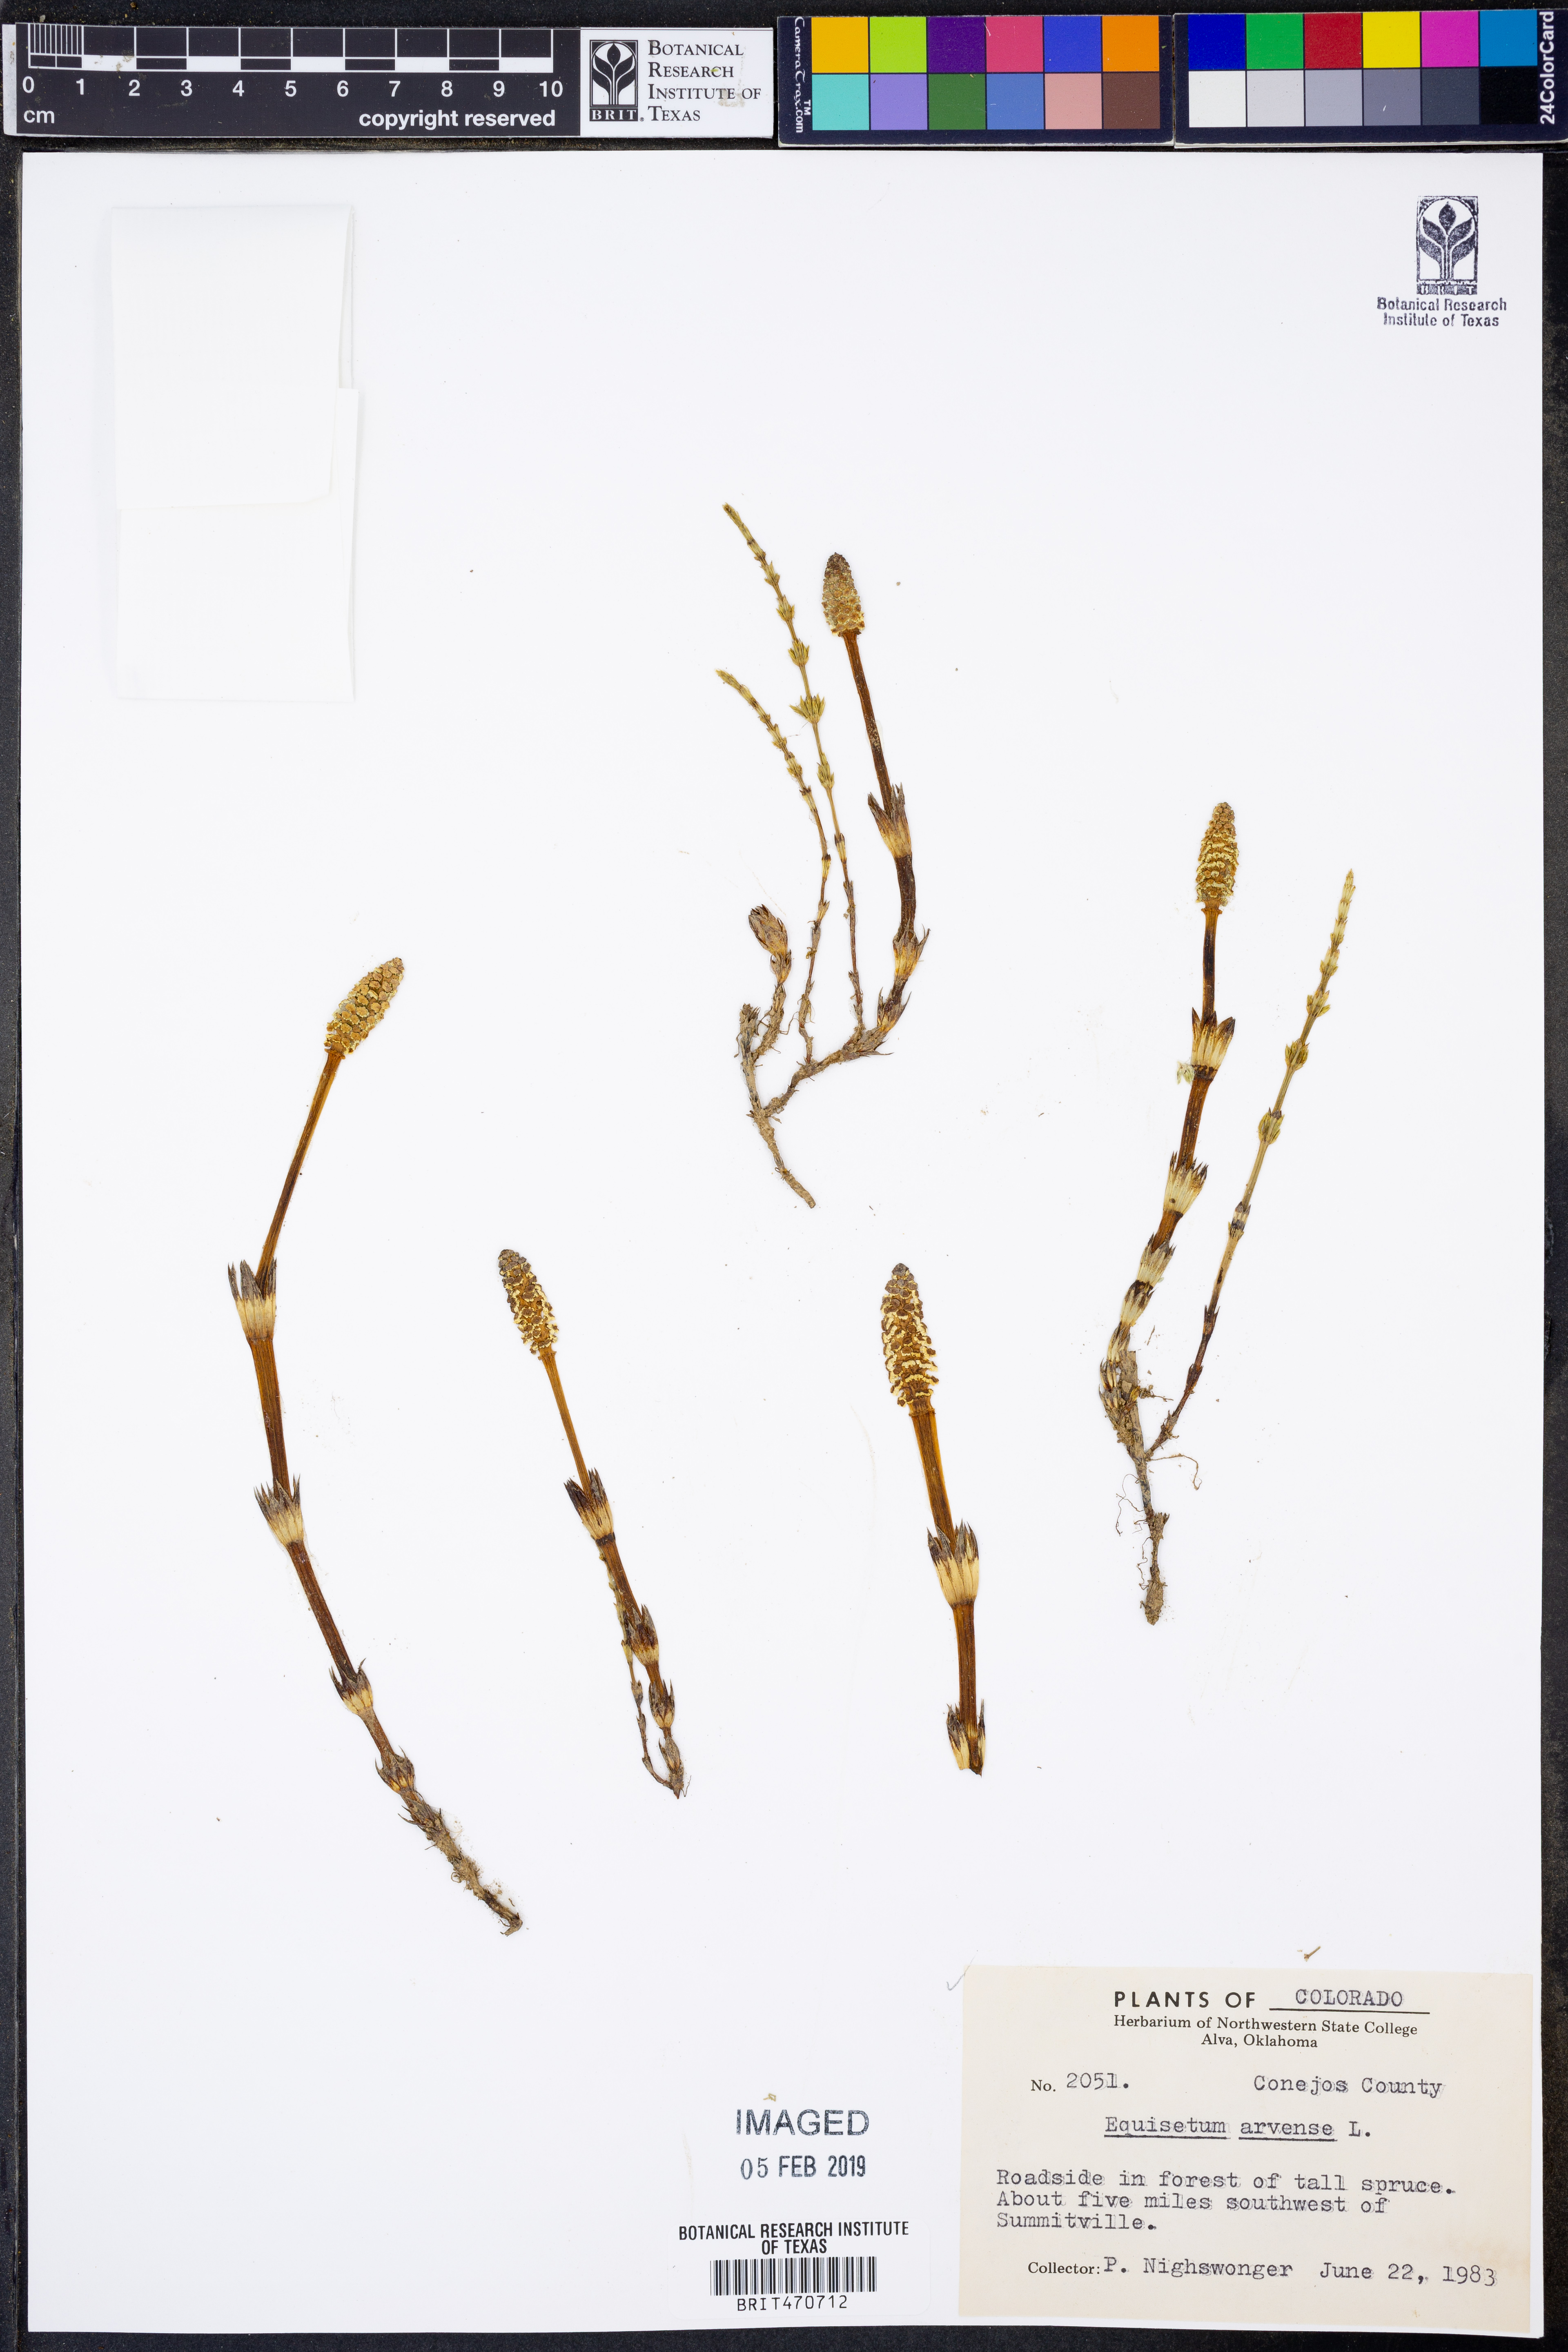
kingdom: Plantae
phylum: Tracheophyta
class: Polypodiopsida
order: Equisetales
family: Equisetaceae
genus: Equisetum
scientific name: Equisetum arvense
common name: Field horsetail
